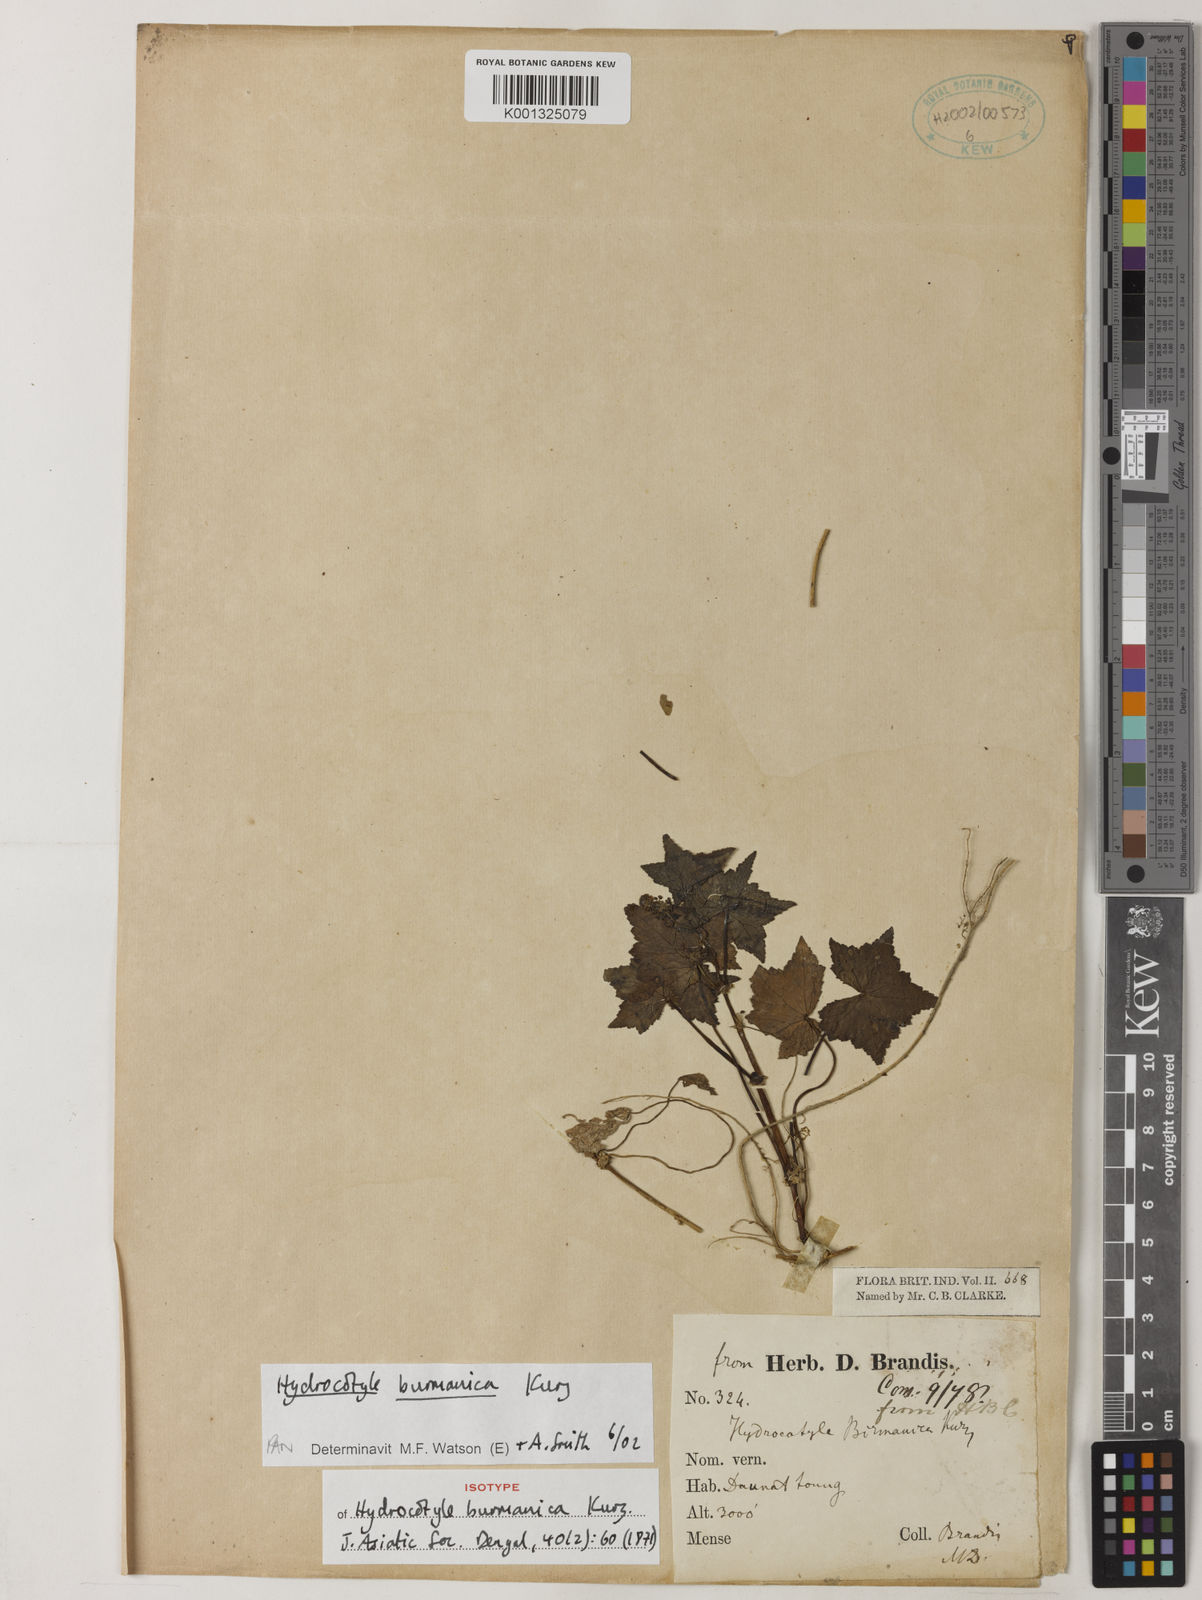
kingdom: Plantae
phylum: Tracheophyta
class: Magnoliopsida
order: Apiales
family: Araliaceae
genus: Hydrocotyle
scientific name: Hydrocotyle burmanica
